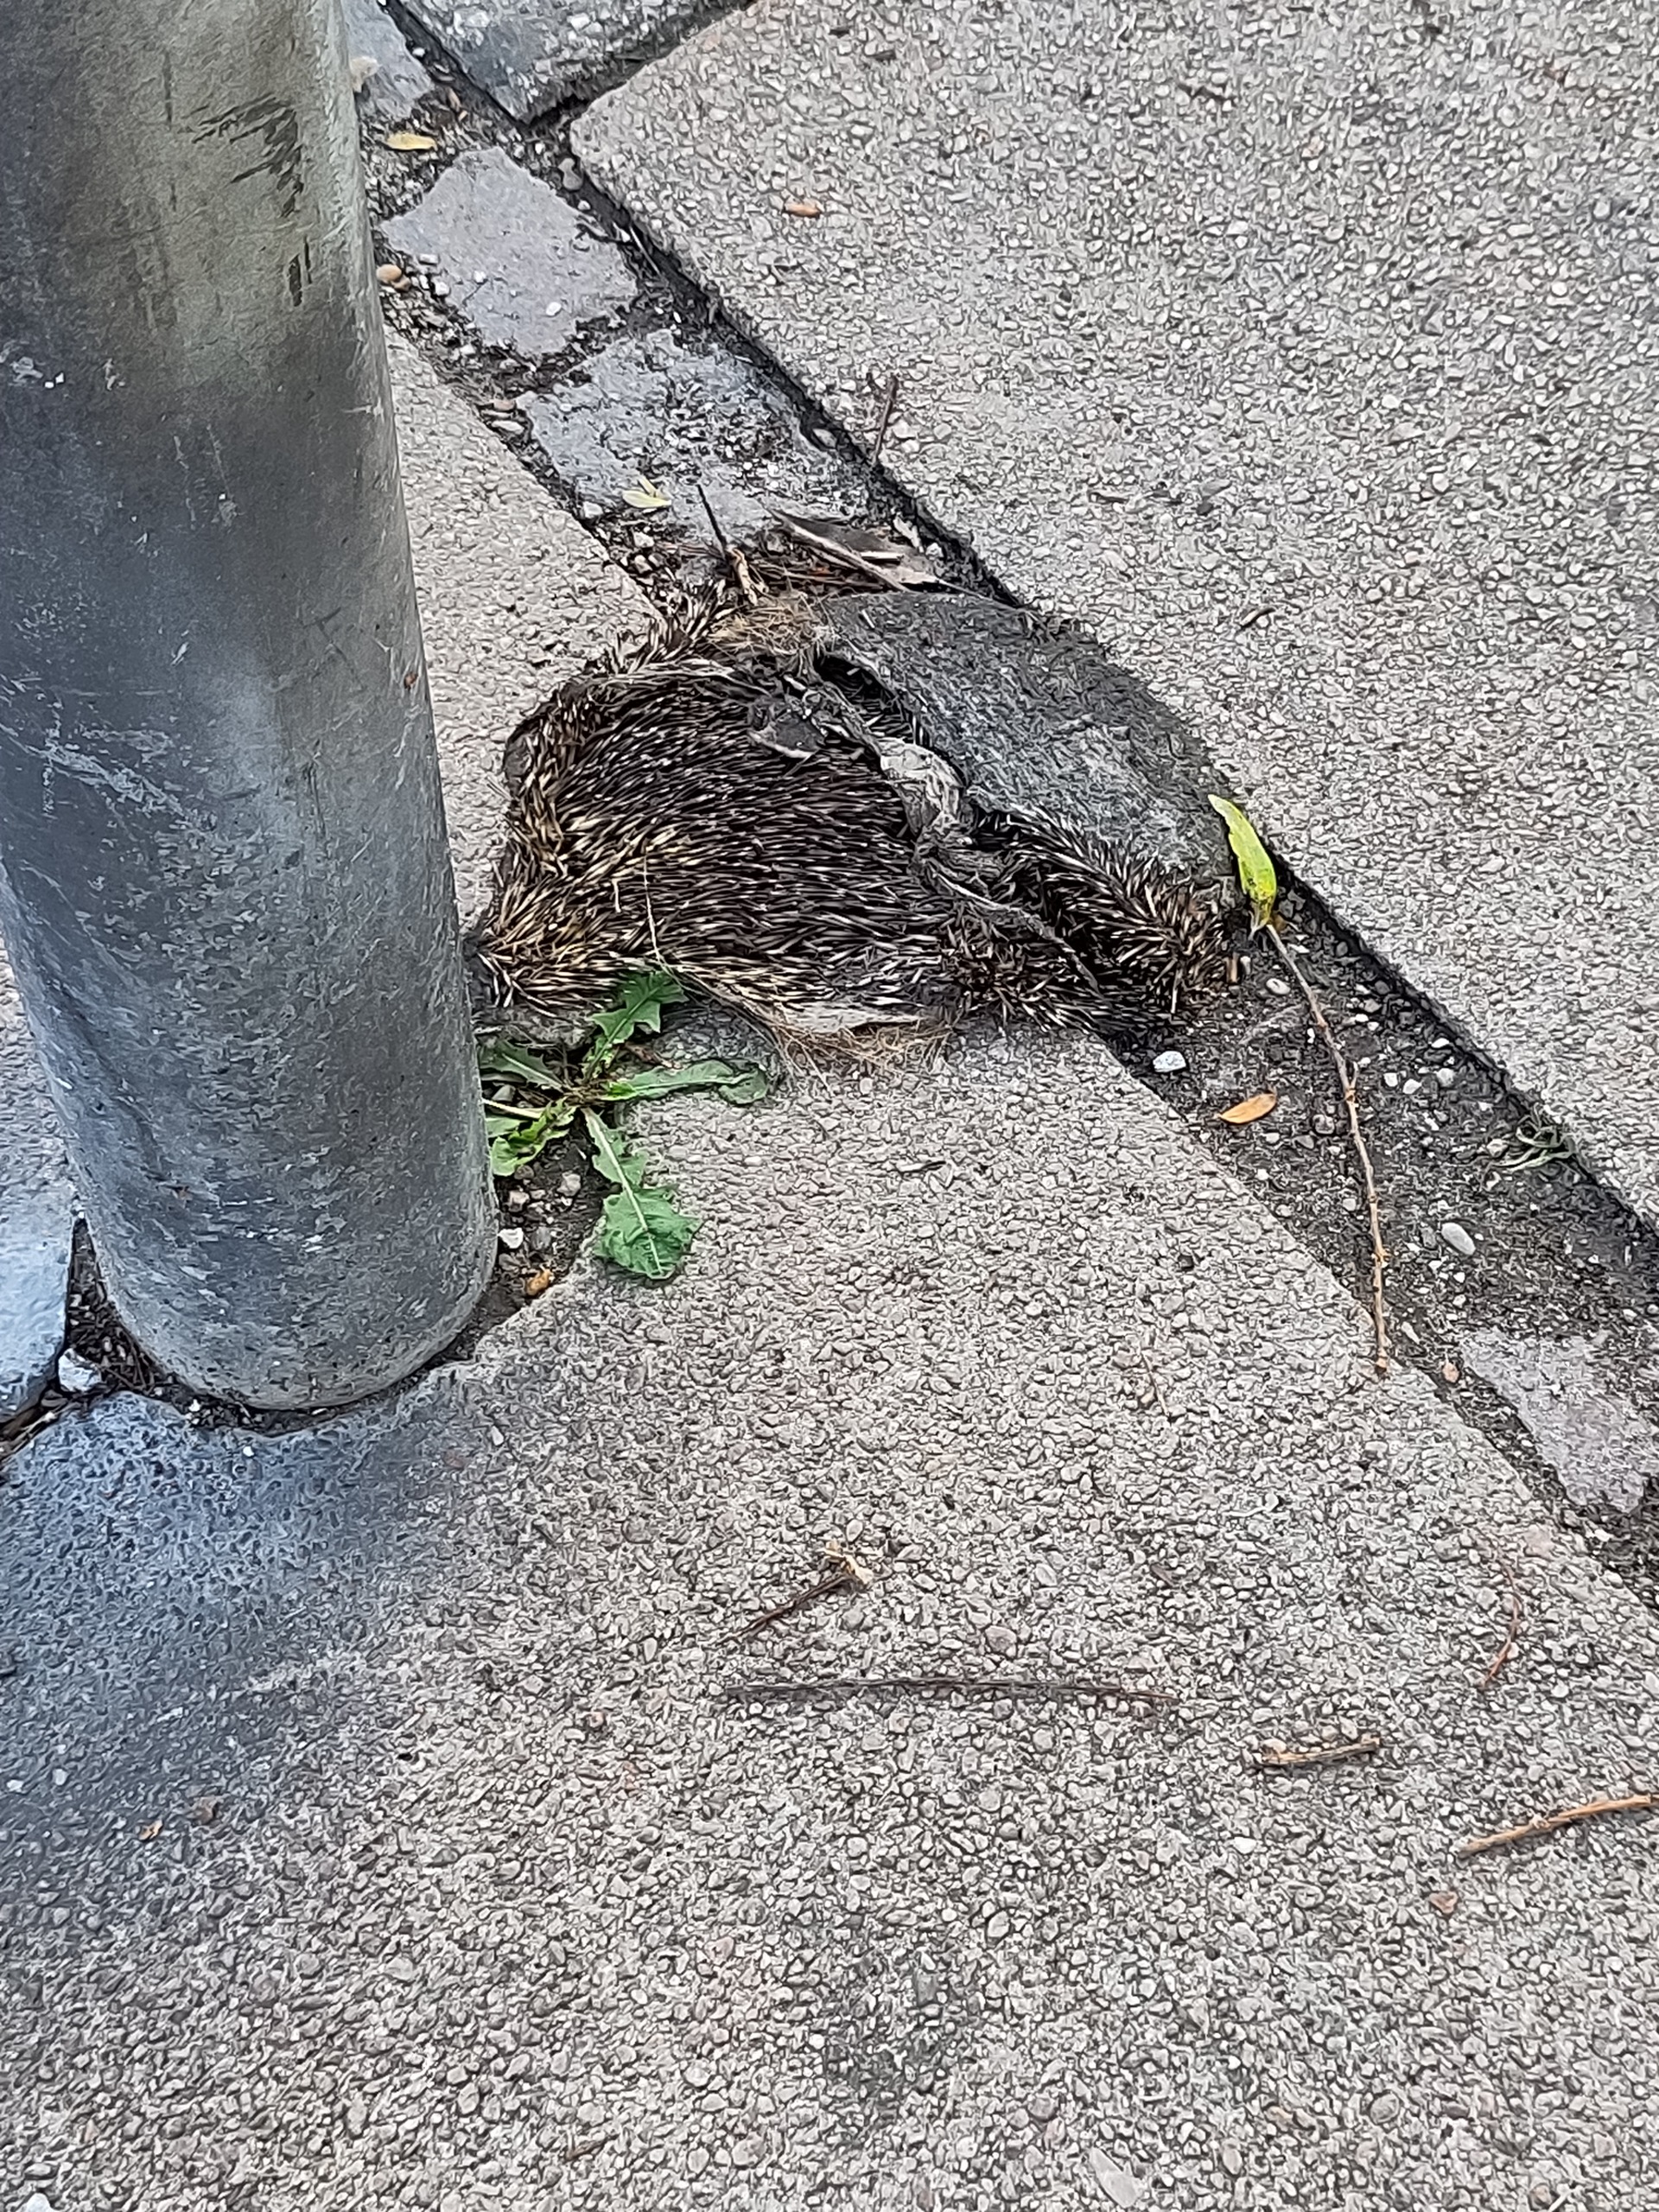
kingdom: Animalia
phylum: Chordata
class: Mammalia
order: Erinaceomorpha
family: Erinaceidae
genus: Erinaceus
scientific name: Erinaceus europaeus
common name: Pindsvin
